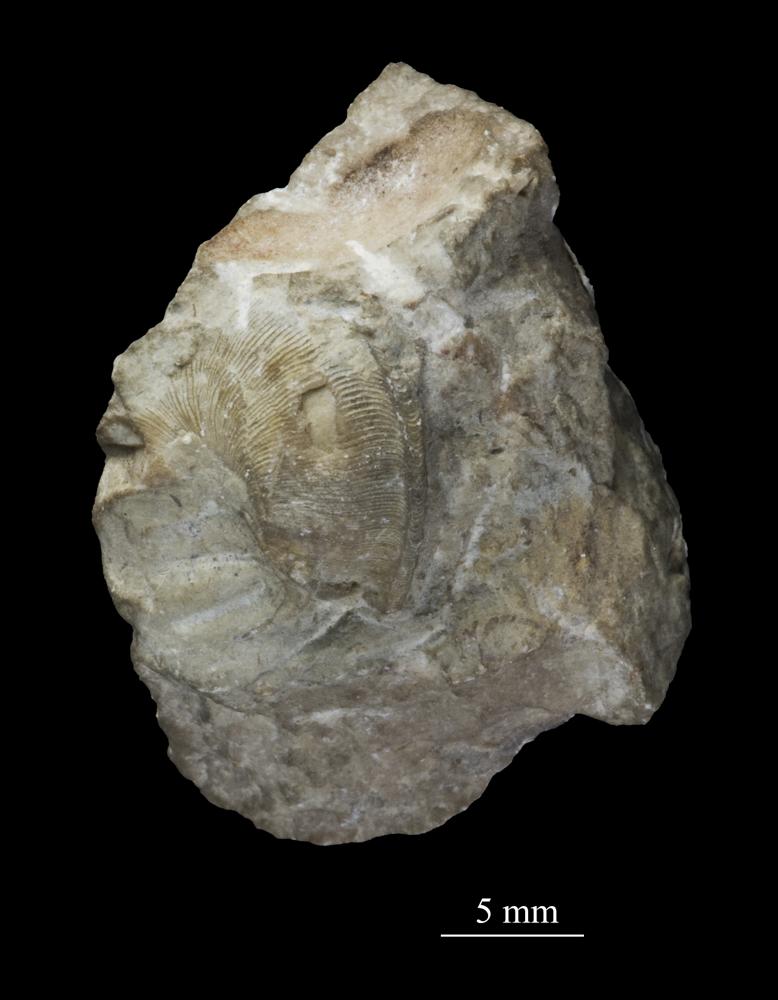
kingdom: Animalia
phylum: Mollusca
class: Gastropoda
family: Lophospiridae
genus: Loxoplocus
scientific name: Loxoplocus Turbo silurica
